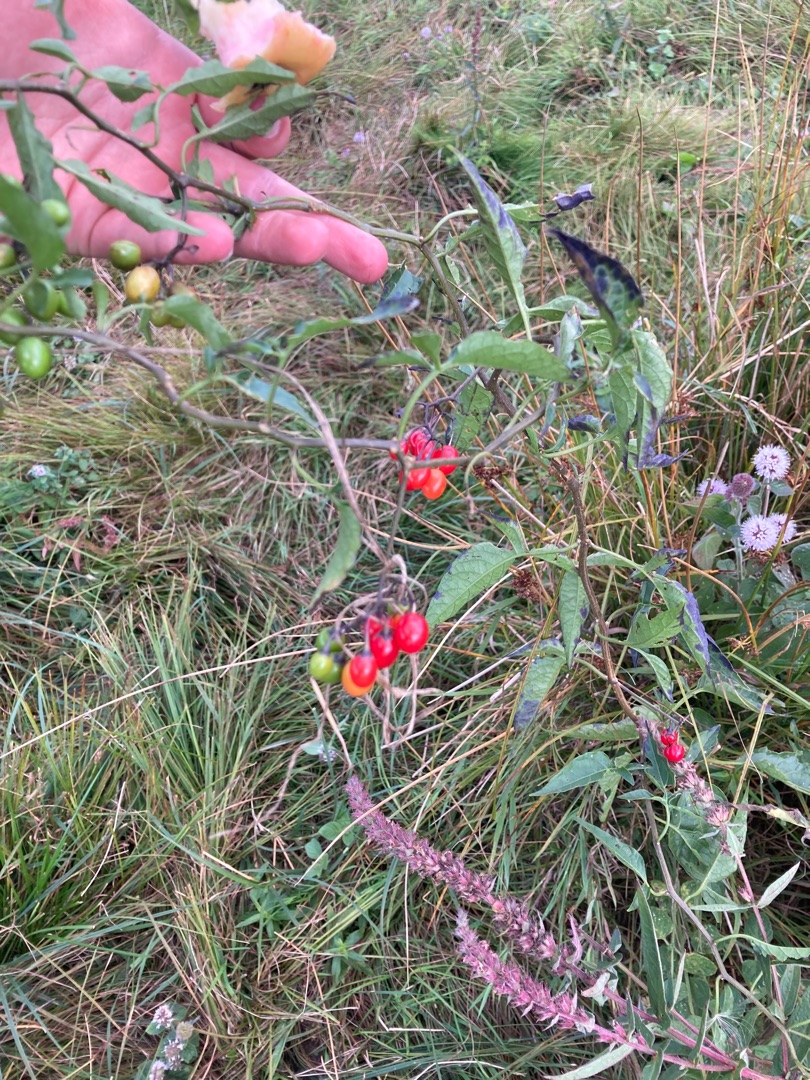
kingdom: Plantae
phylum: Tracheophyta
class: Magnoliopsida
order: Solanales
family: Solanaceae
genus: Solanum
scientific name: Solanum dulcamara
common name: Bittersød natskygge
